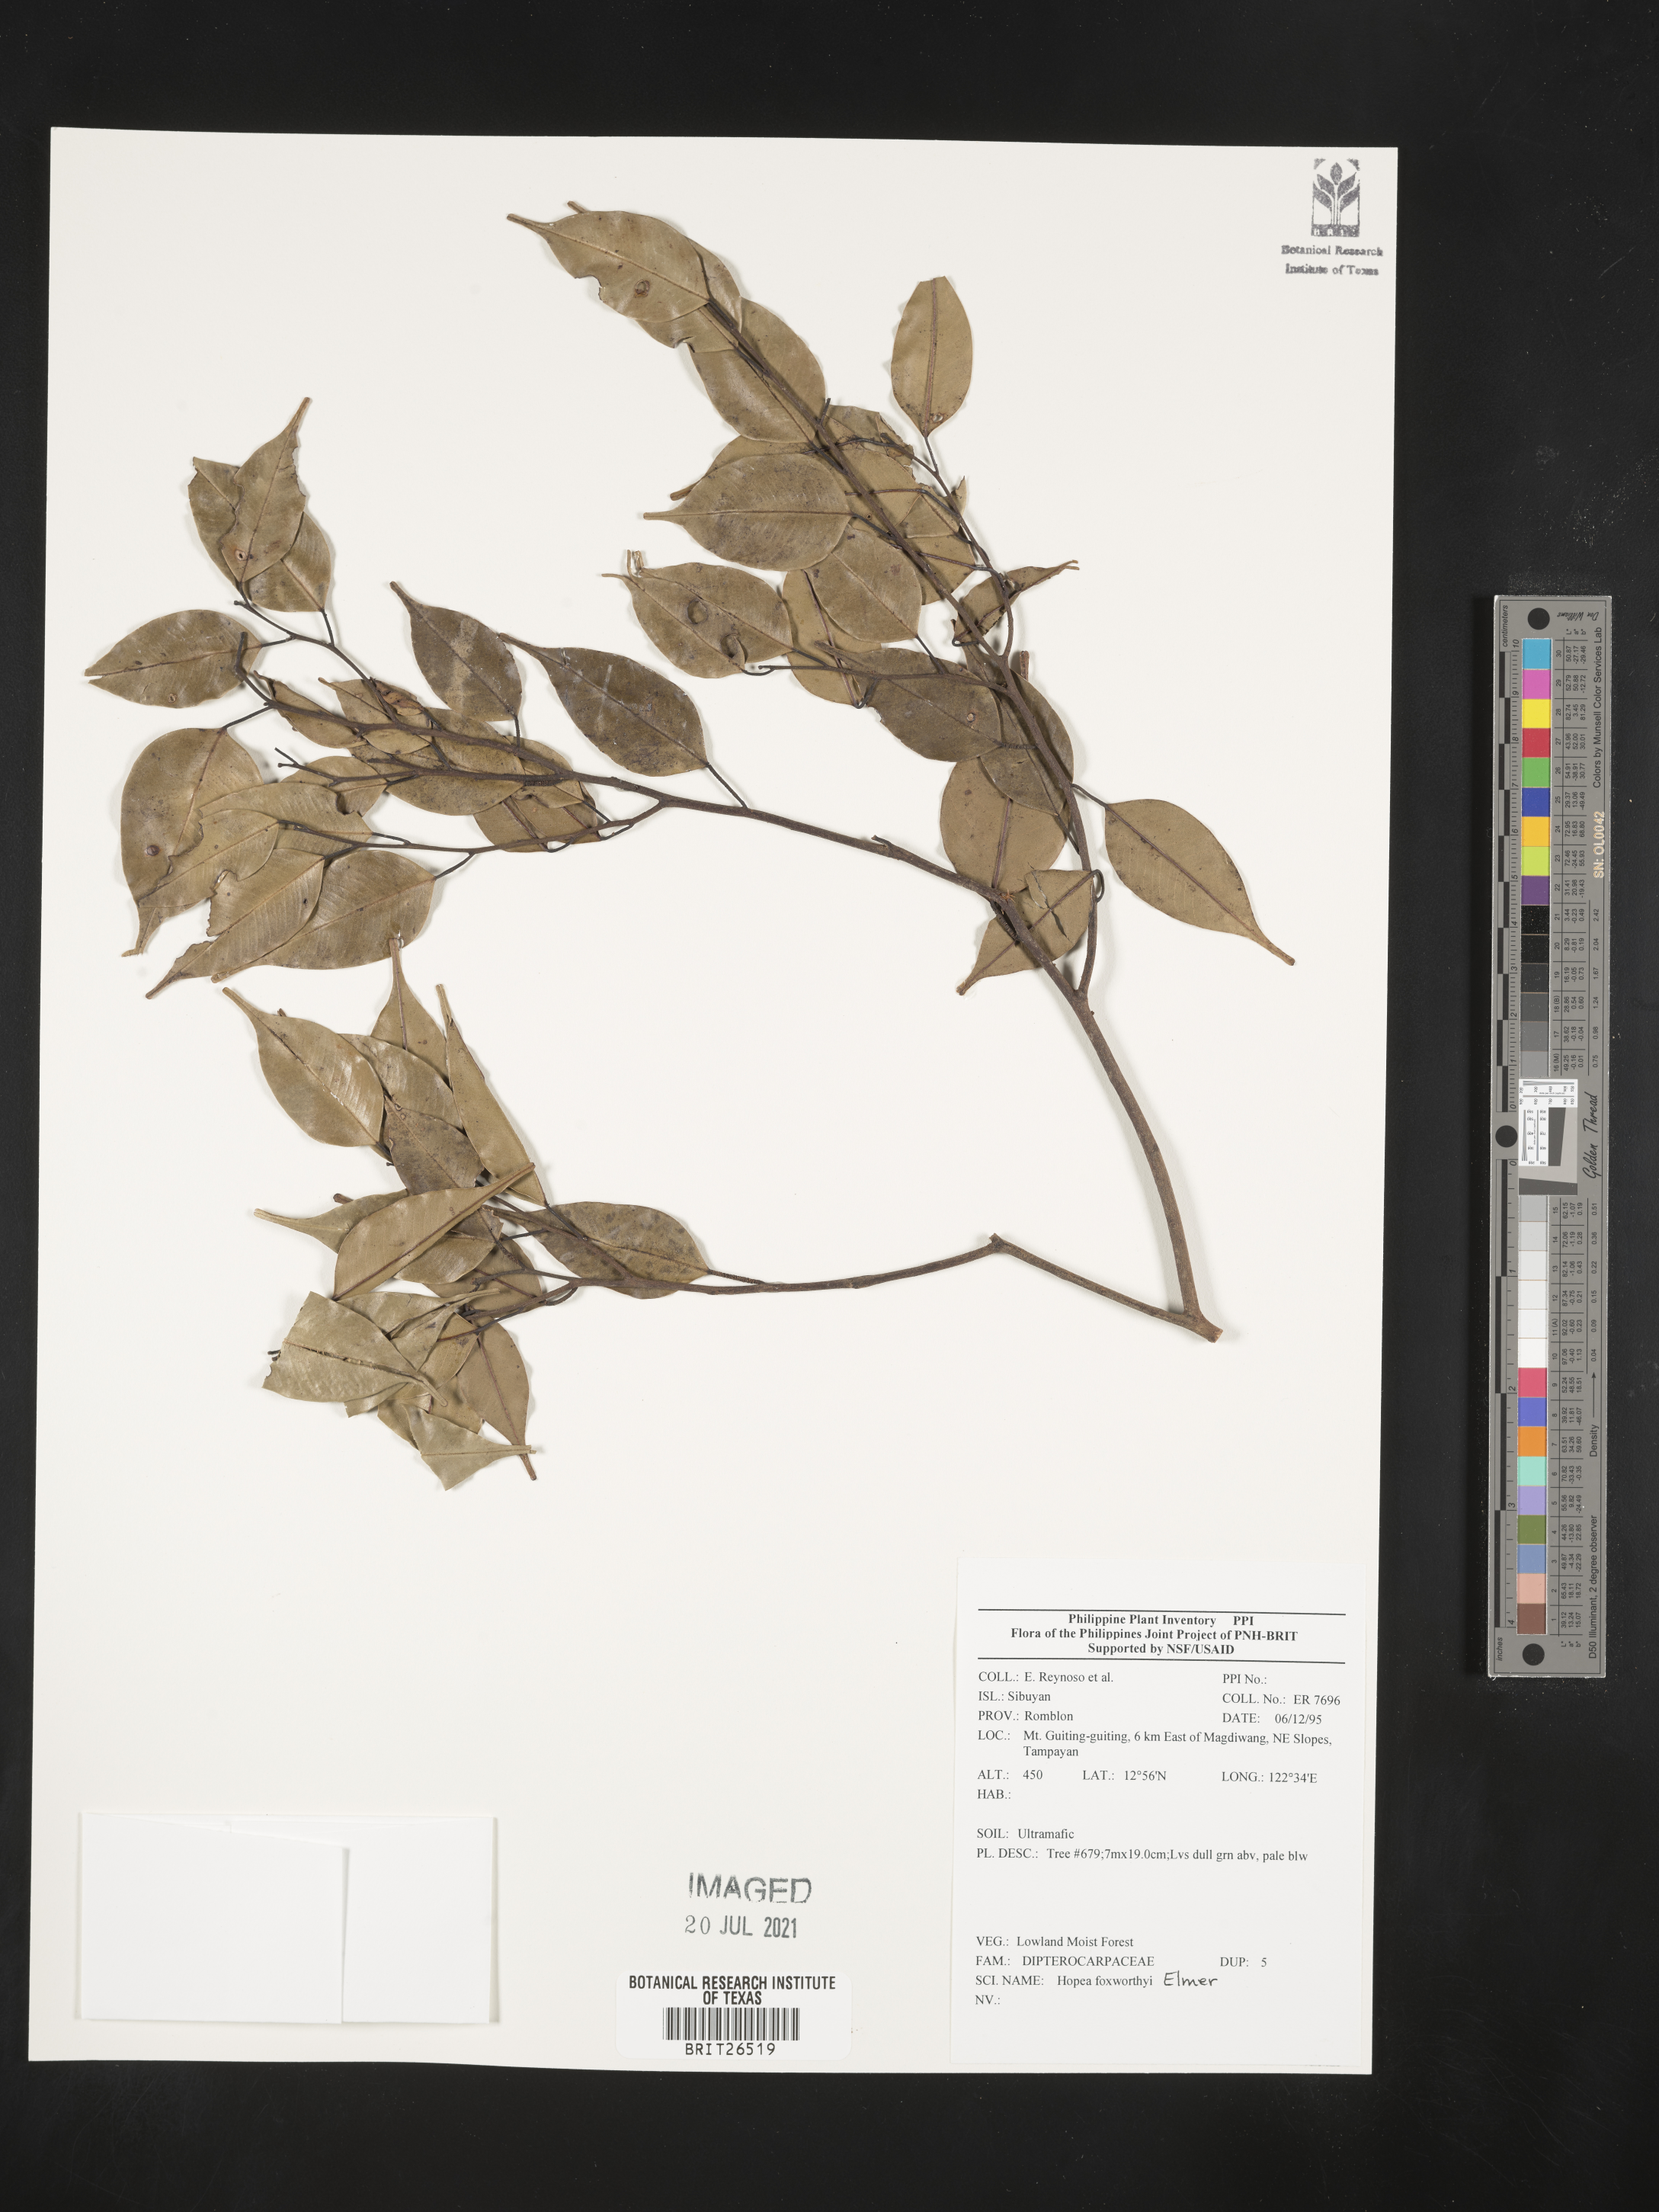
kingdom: Plantae
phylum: Tracheophyta
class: Magnoliopsida
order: Malvales
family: Dipterocarpaceae
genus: Hopea
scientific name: Hopea foxworthyi
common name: Dalingdingan
